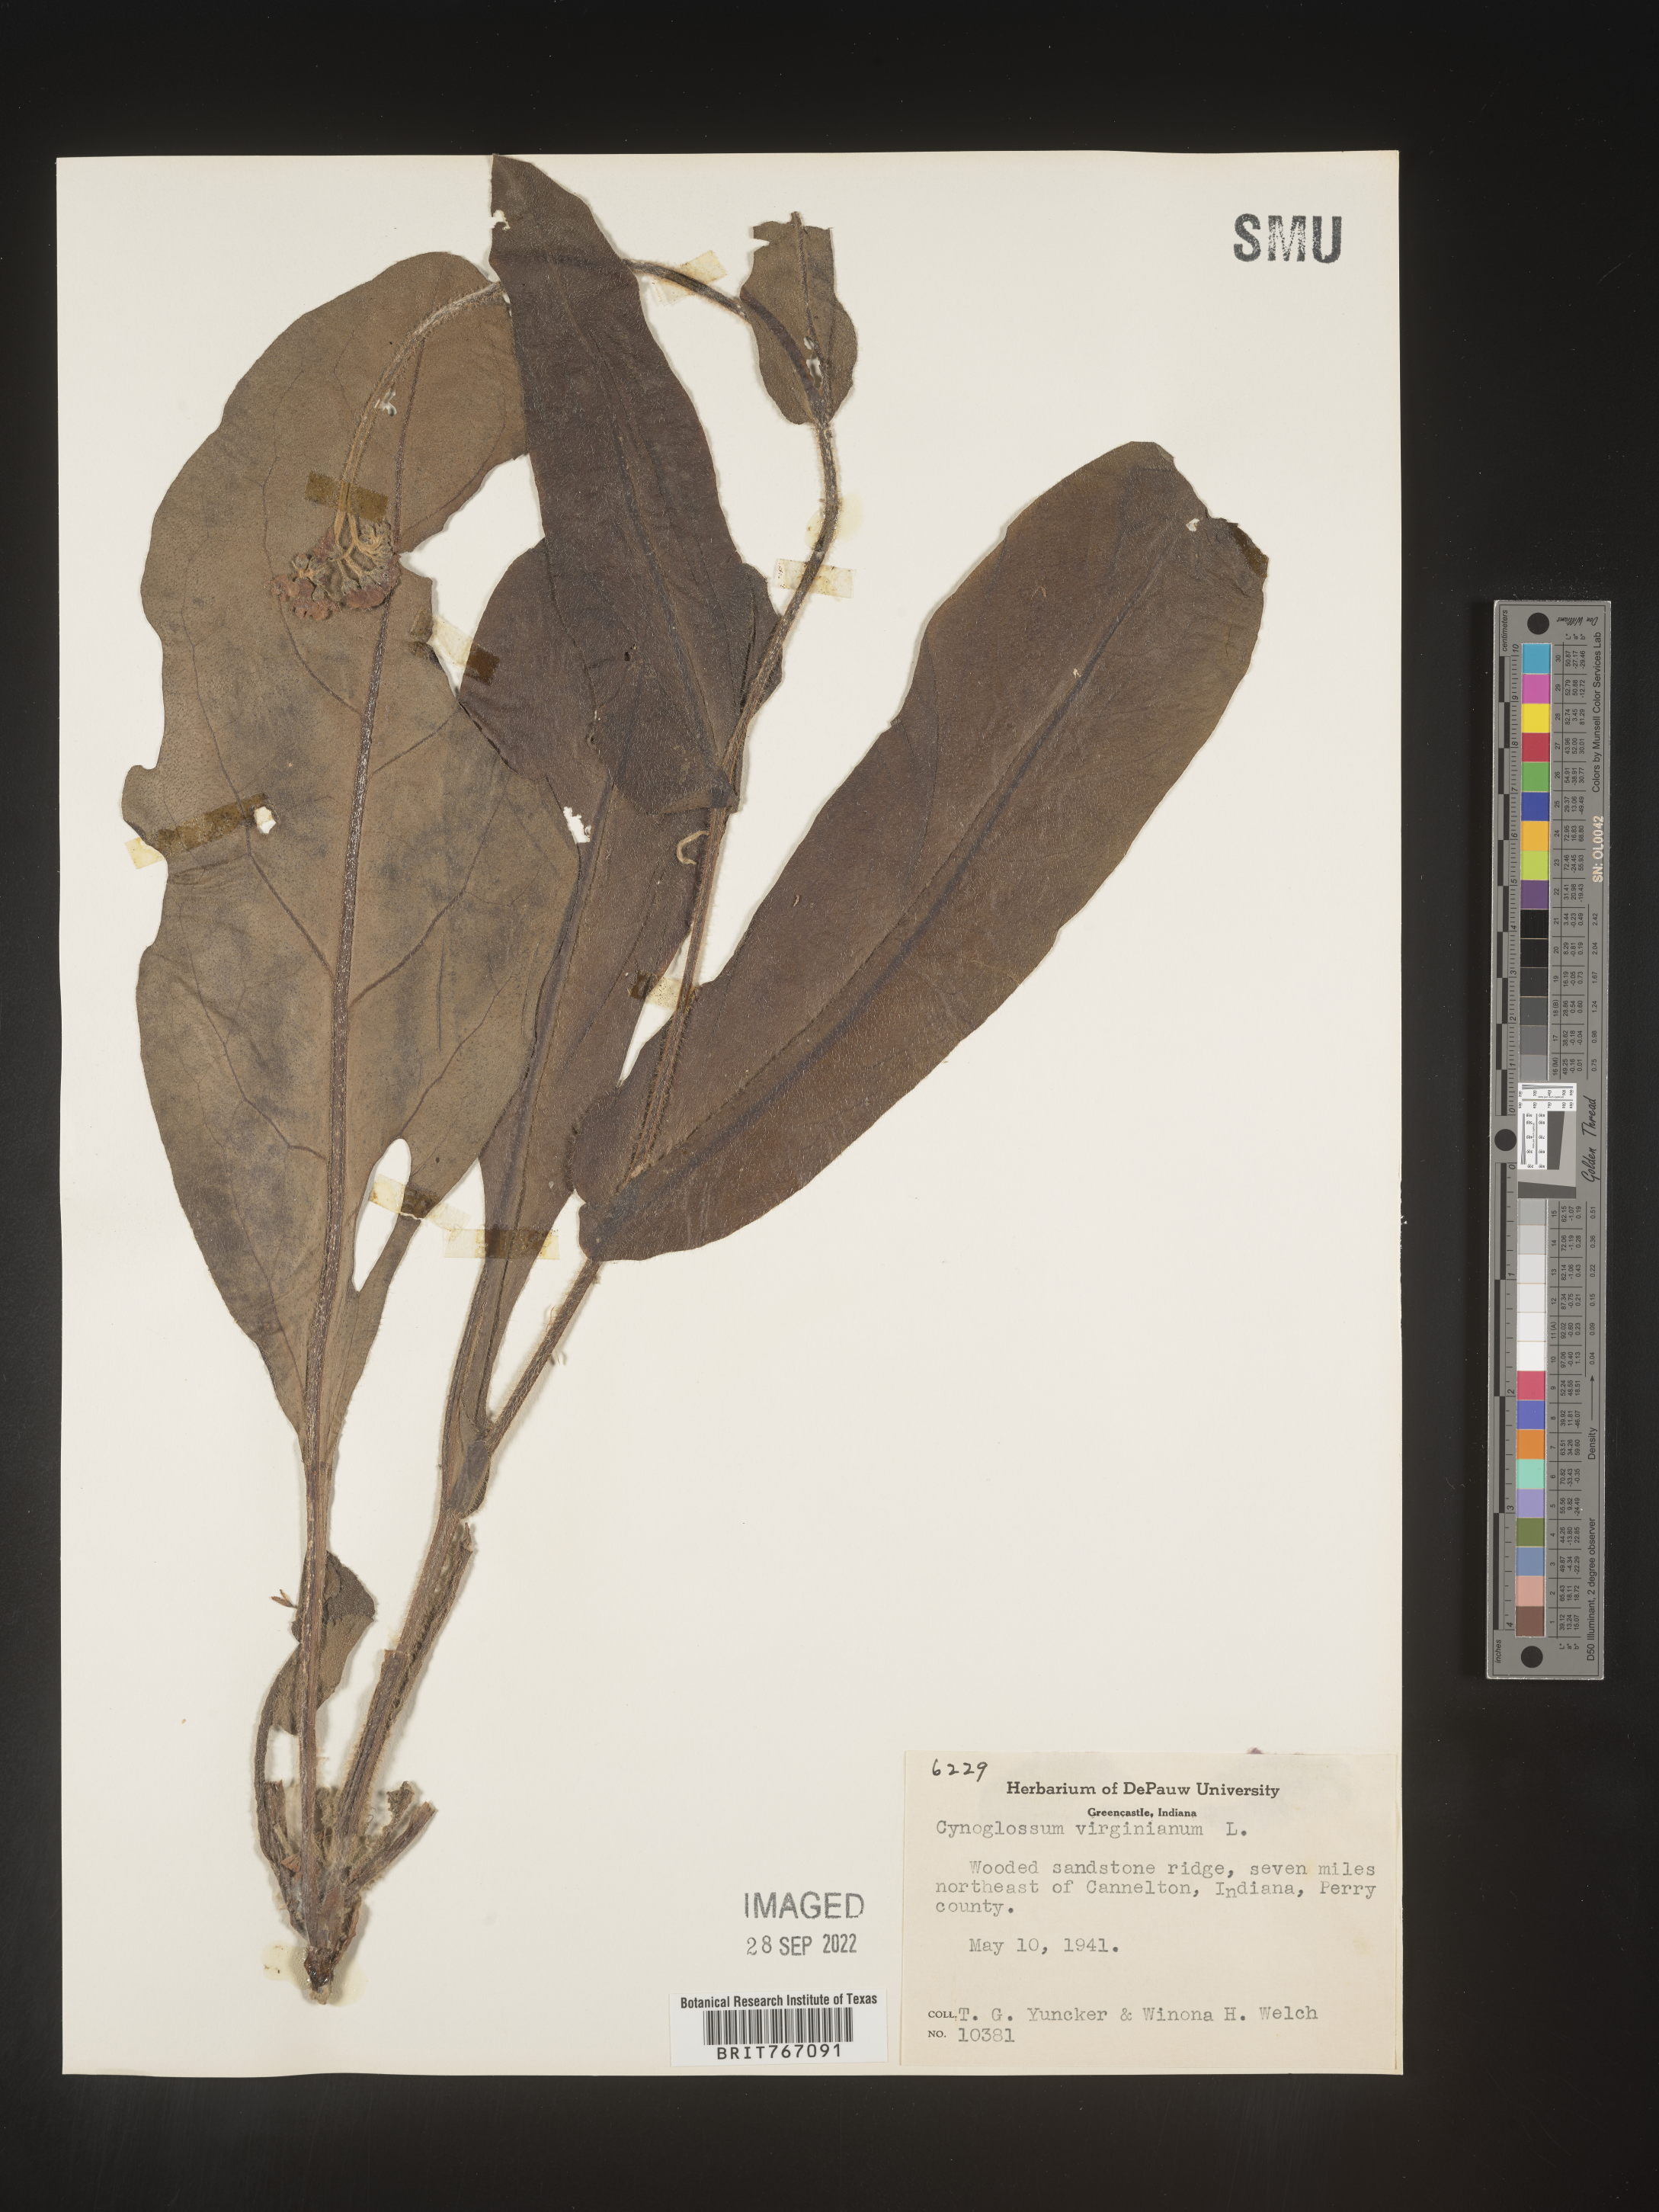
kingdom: Plantae
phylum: Tracheophyta
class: Magnoliopsida
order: Boraginales
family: Boraginaceae
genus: Andersonglossum
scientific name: Andersonglossum virginianum
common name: Wild comfrey
